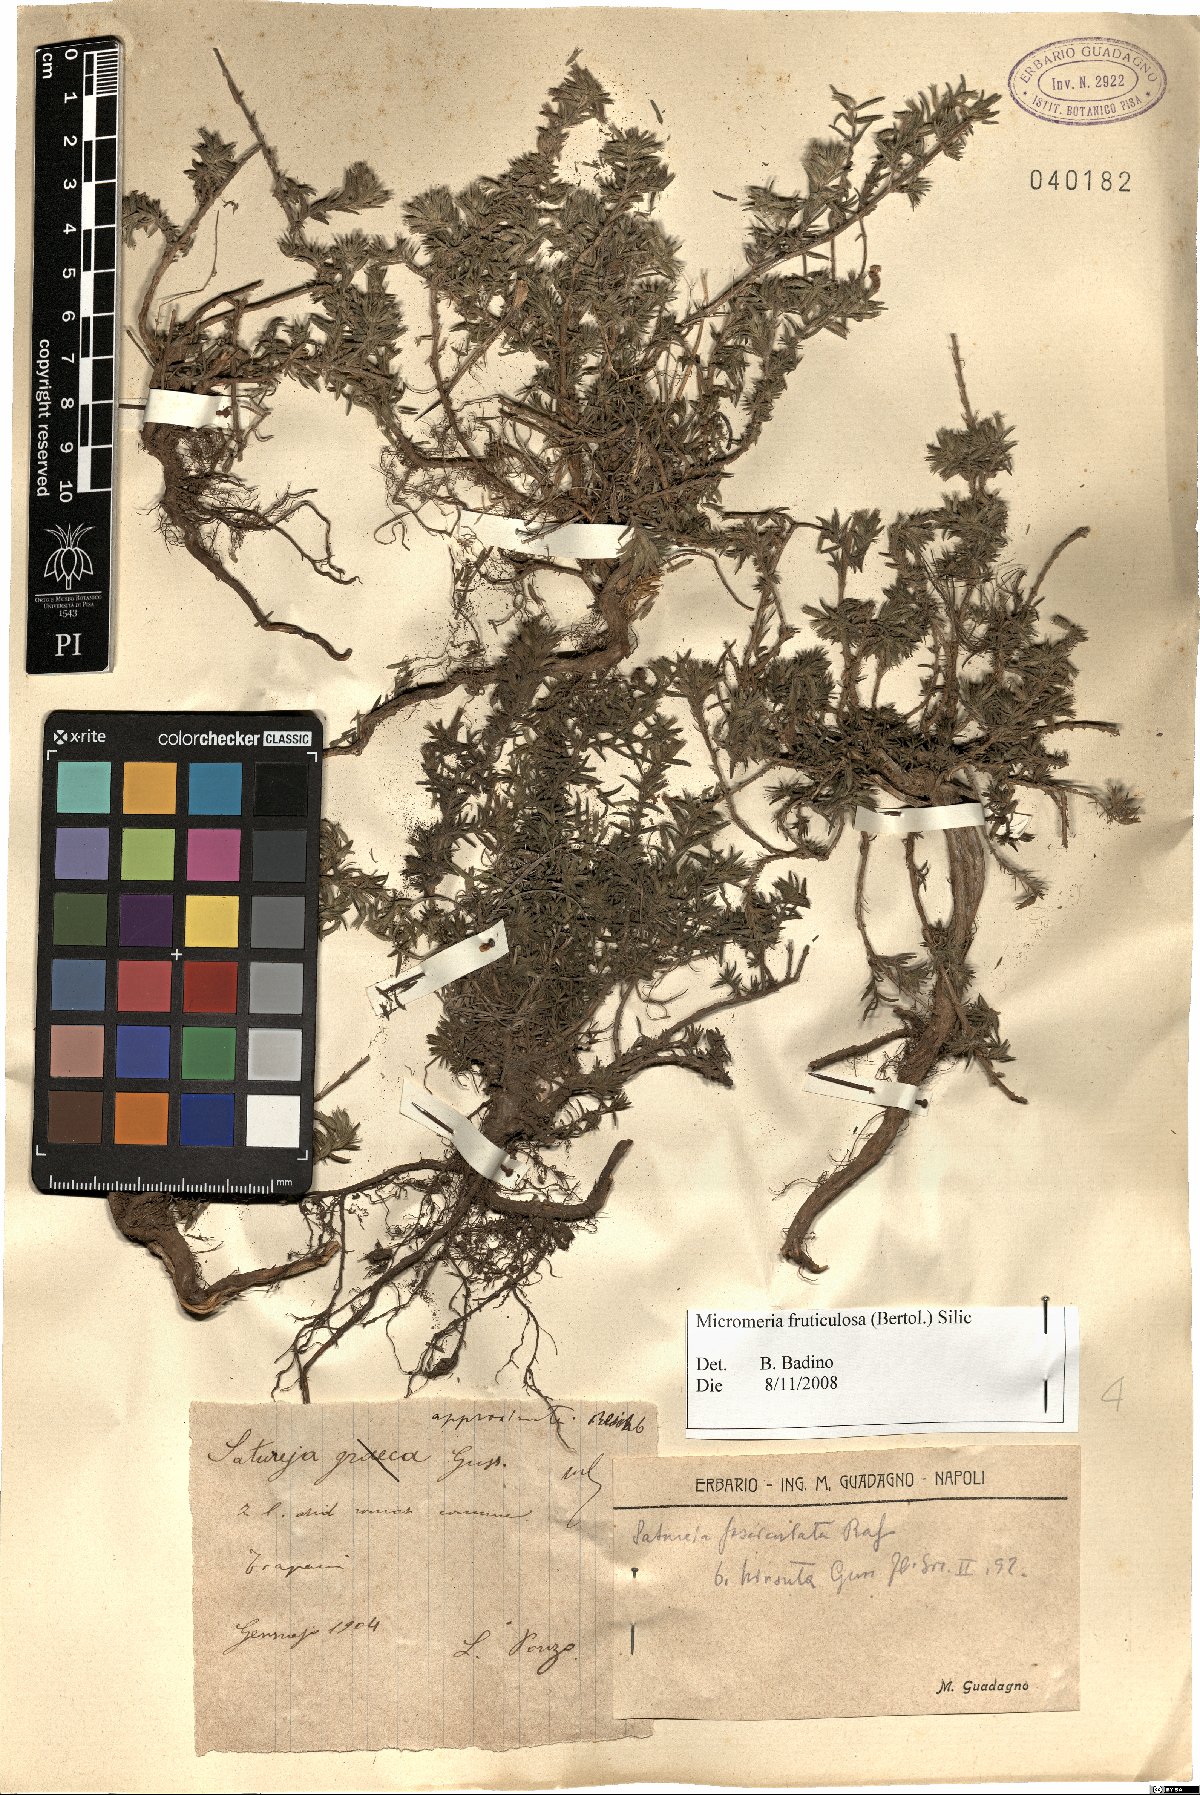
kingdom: Plantae
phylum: Tracheophyta
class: Magnoliopsida
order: Lamiales
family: Lamiaceae
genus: Micromeria
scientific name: Micromeria graeca
